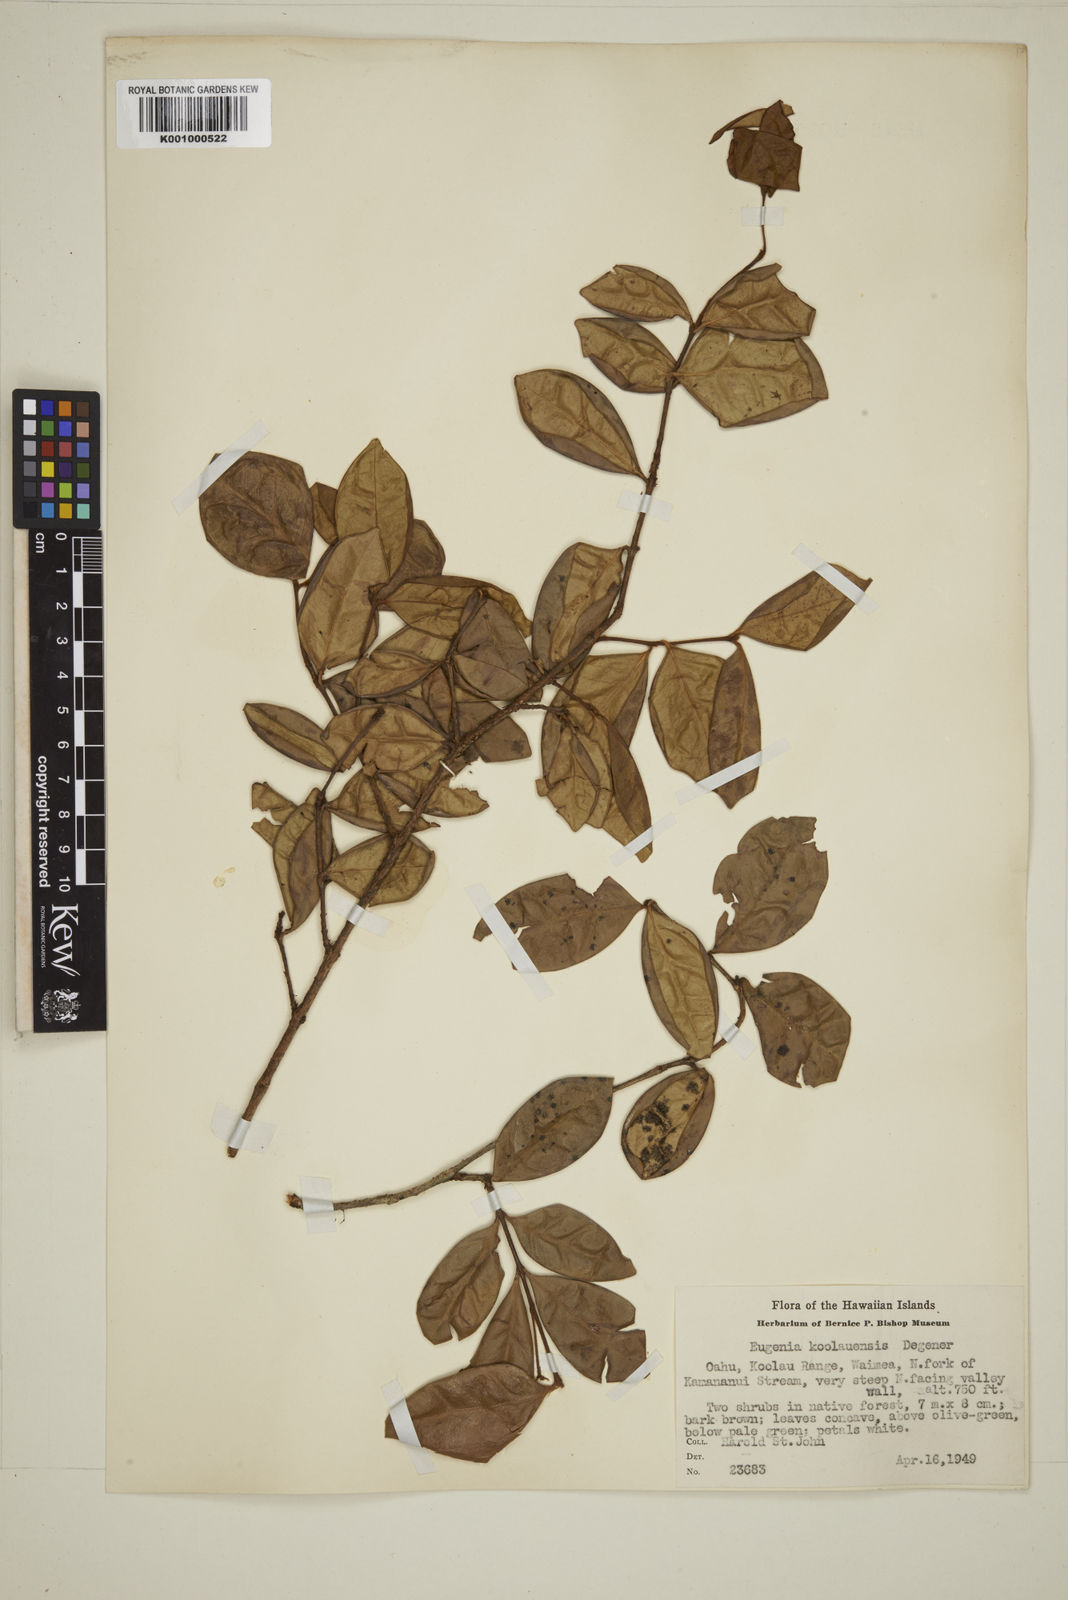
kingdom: Plantae
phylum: Tracheophyta
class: Magnoliopsida
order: Myrtales
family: Myrtaceae
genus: Eugenia
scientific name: Eugenia koolauensis
